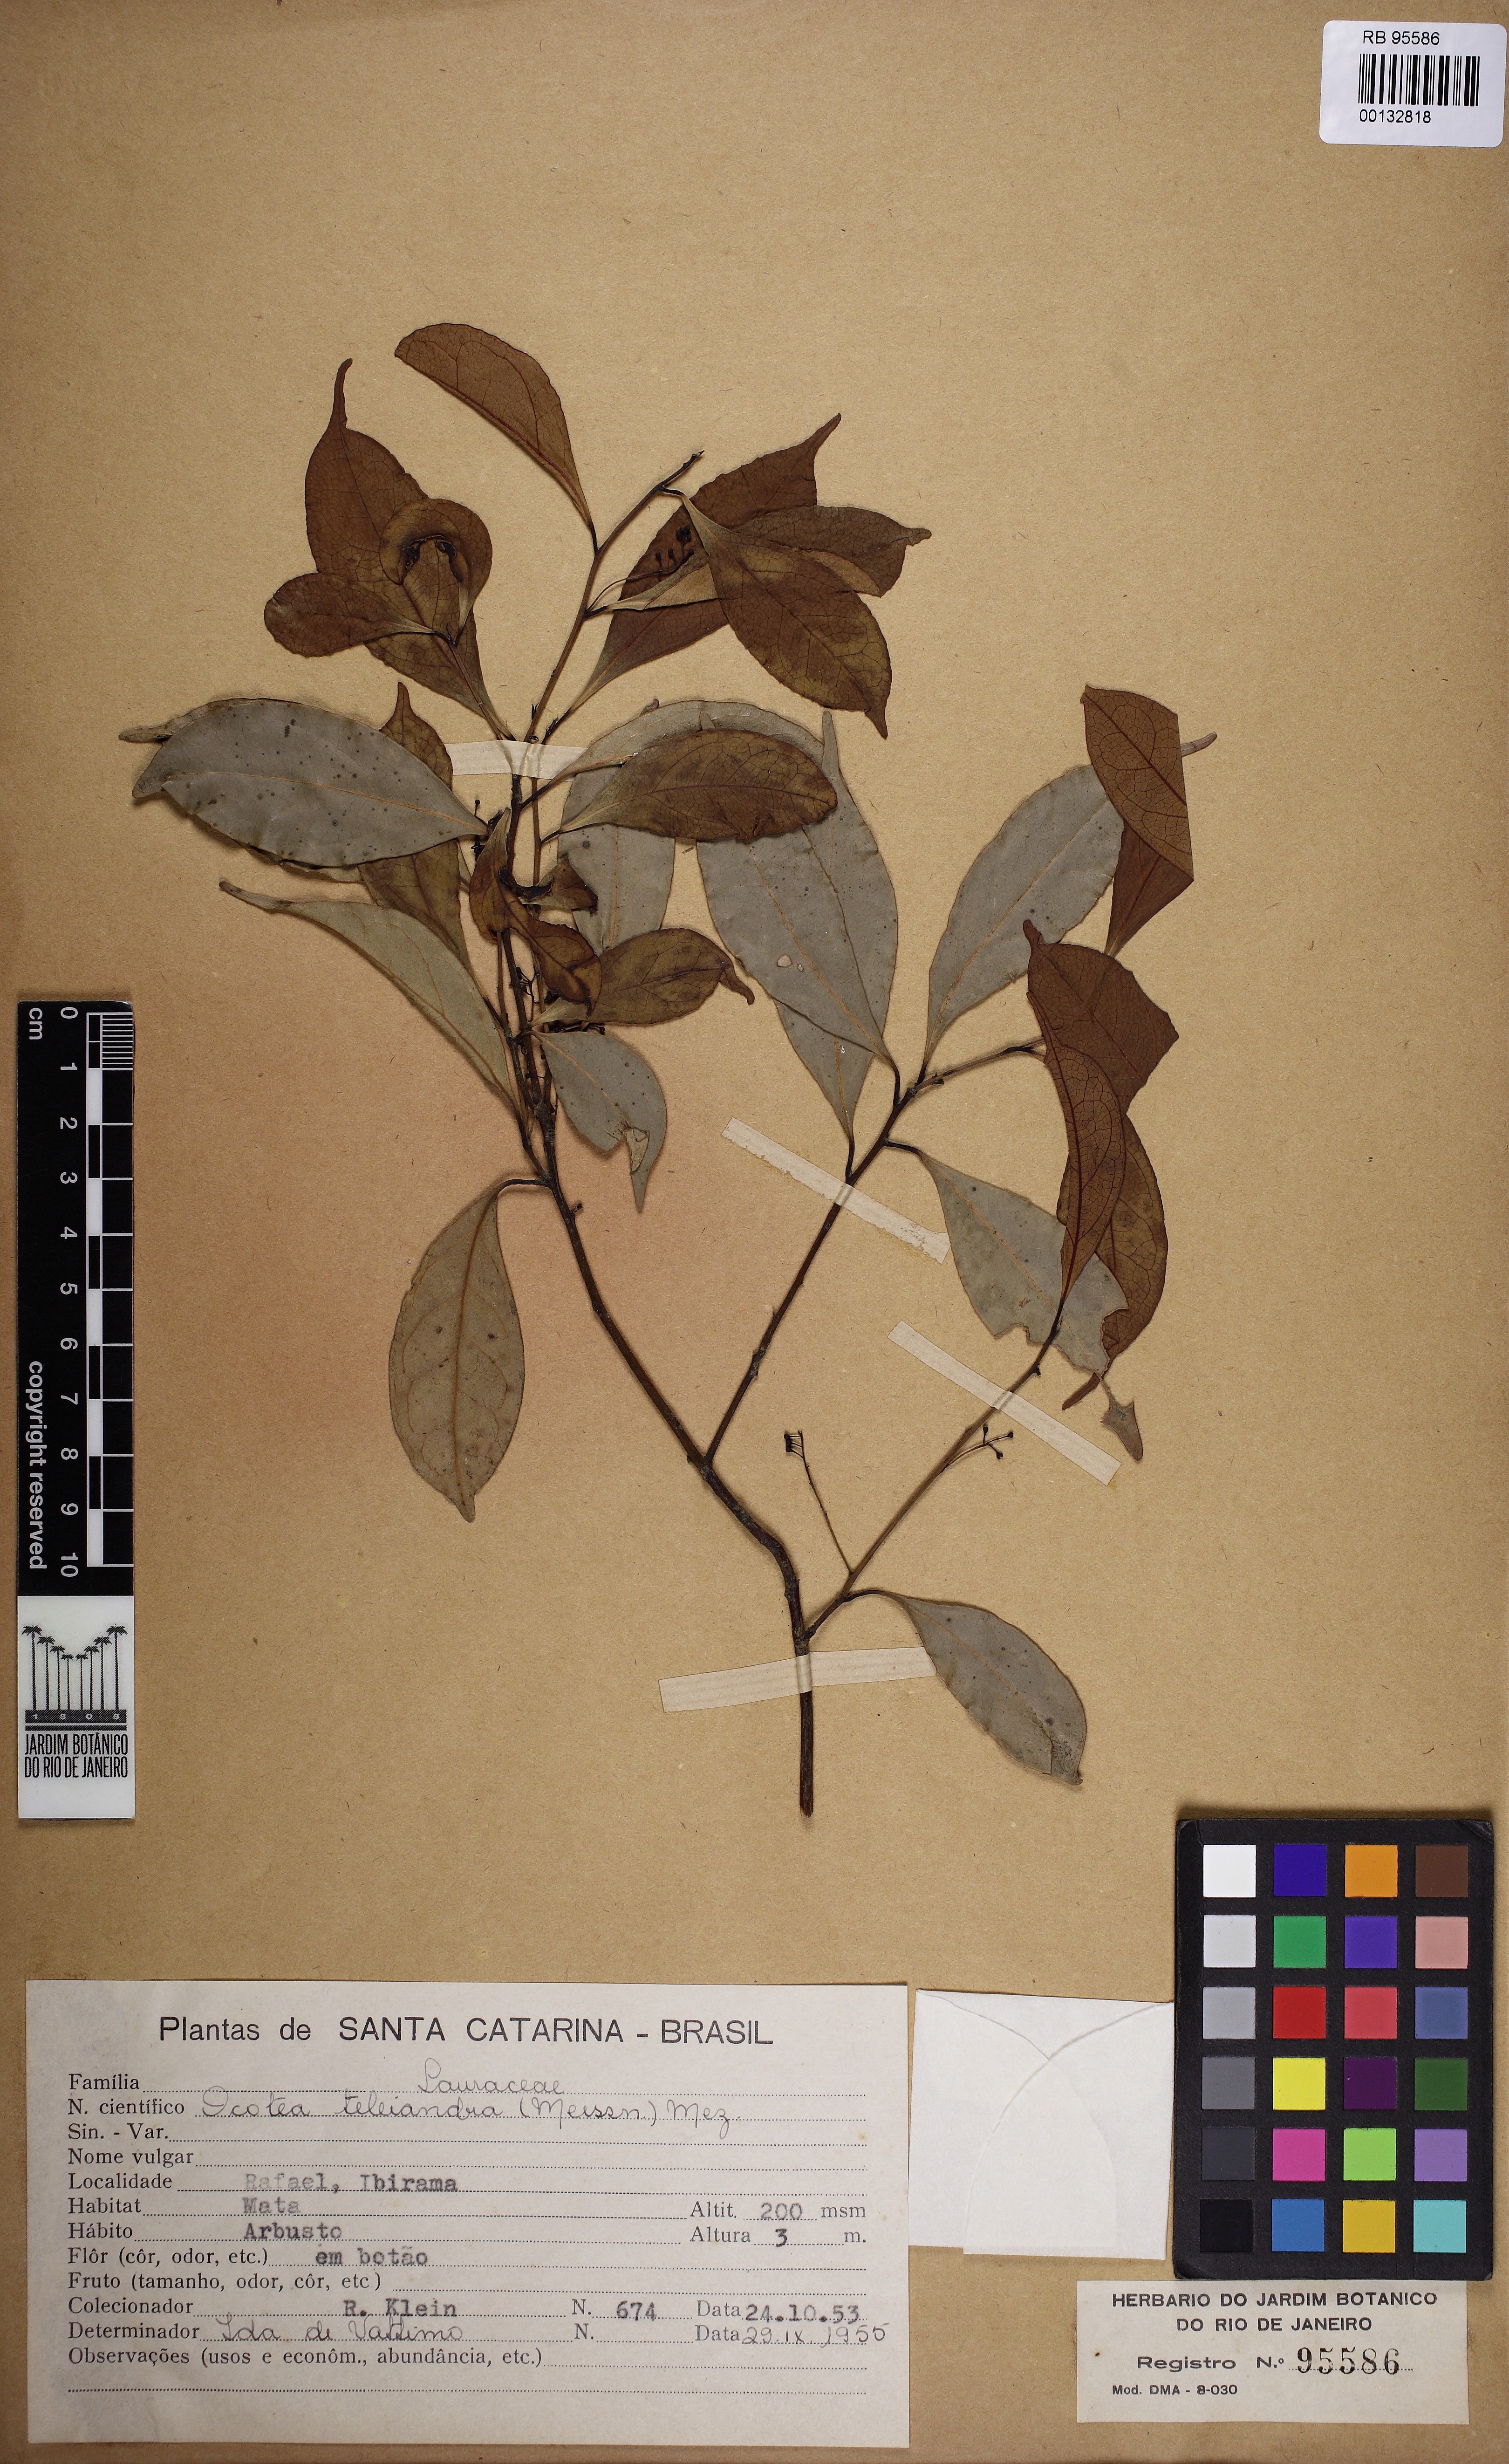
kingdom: Plantae
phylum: Tracheophyta
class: Magnoliopsida
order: Laurales
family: Lauraceae
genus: Ocotea
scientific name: Ocotea teleiandra
